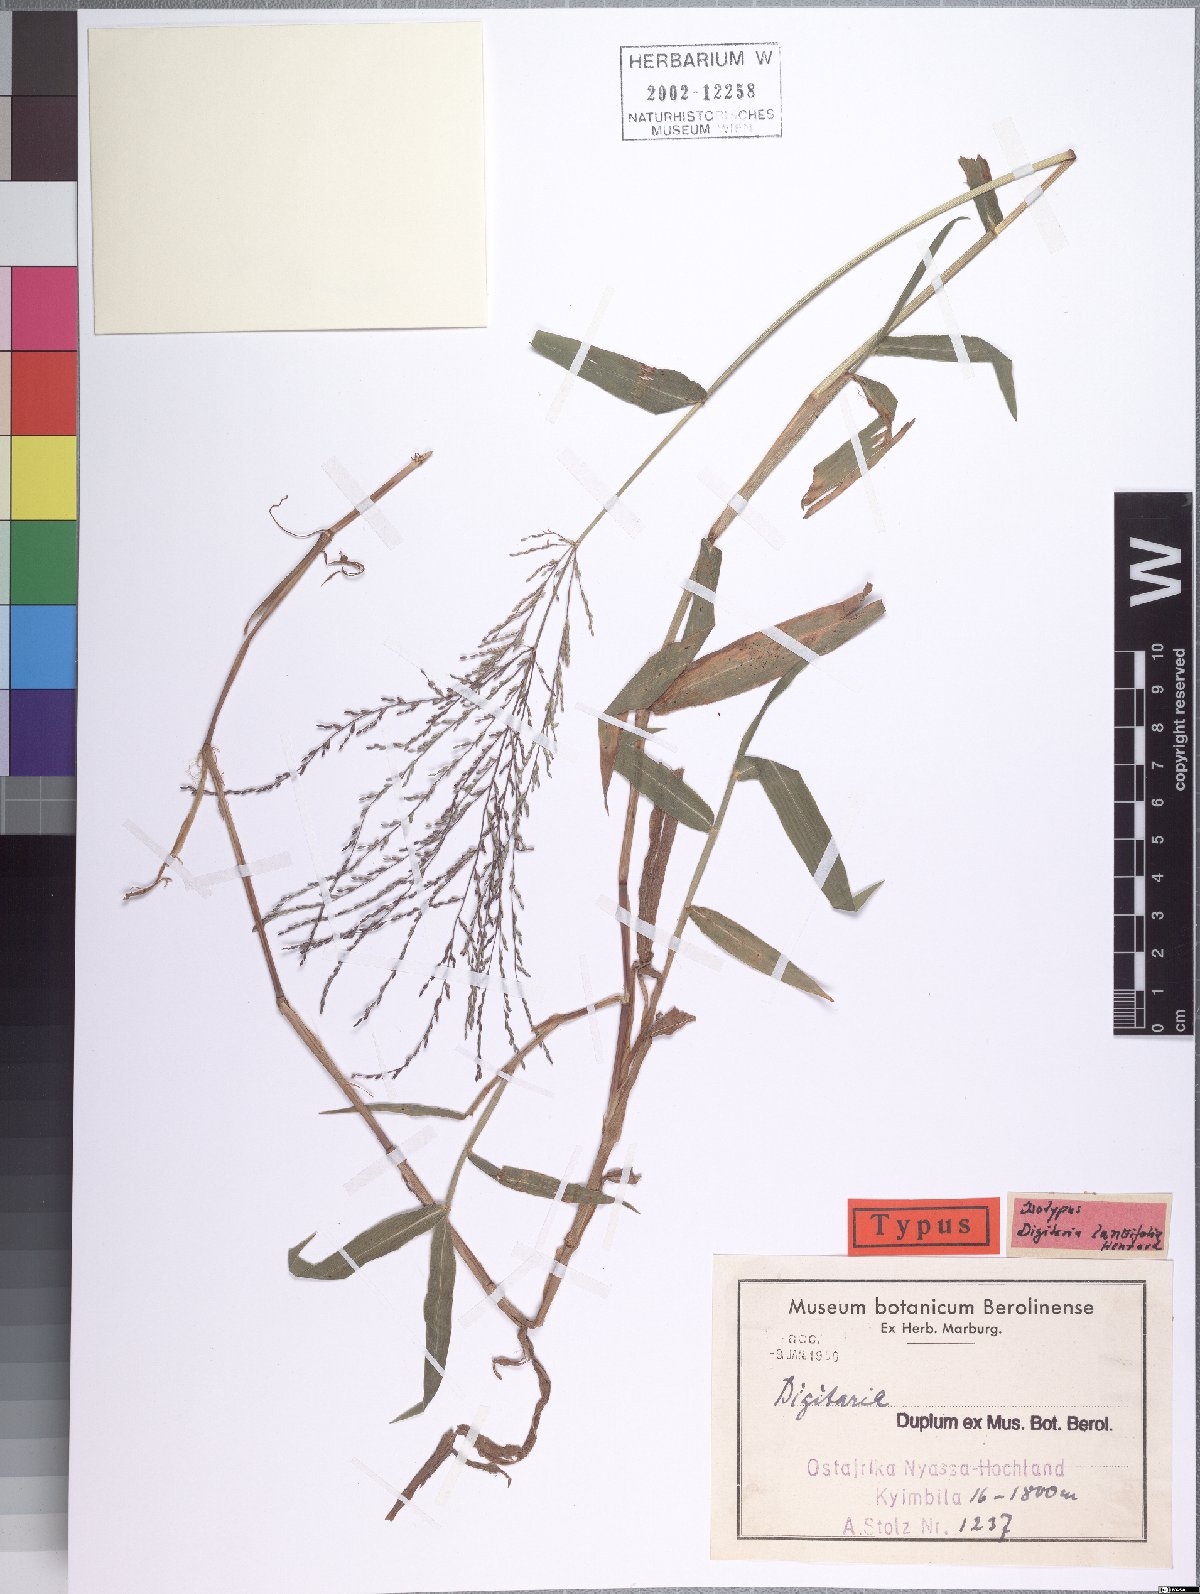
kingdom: Plantae
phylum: Tracheophyta
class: Liliopsida
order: Poales
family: Poaceae
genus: Digitaria
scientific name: Digitaria pearsonii
